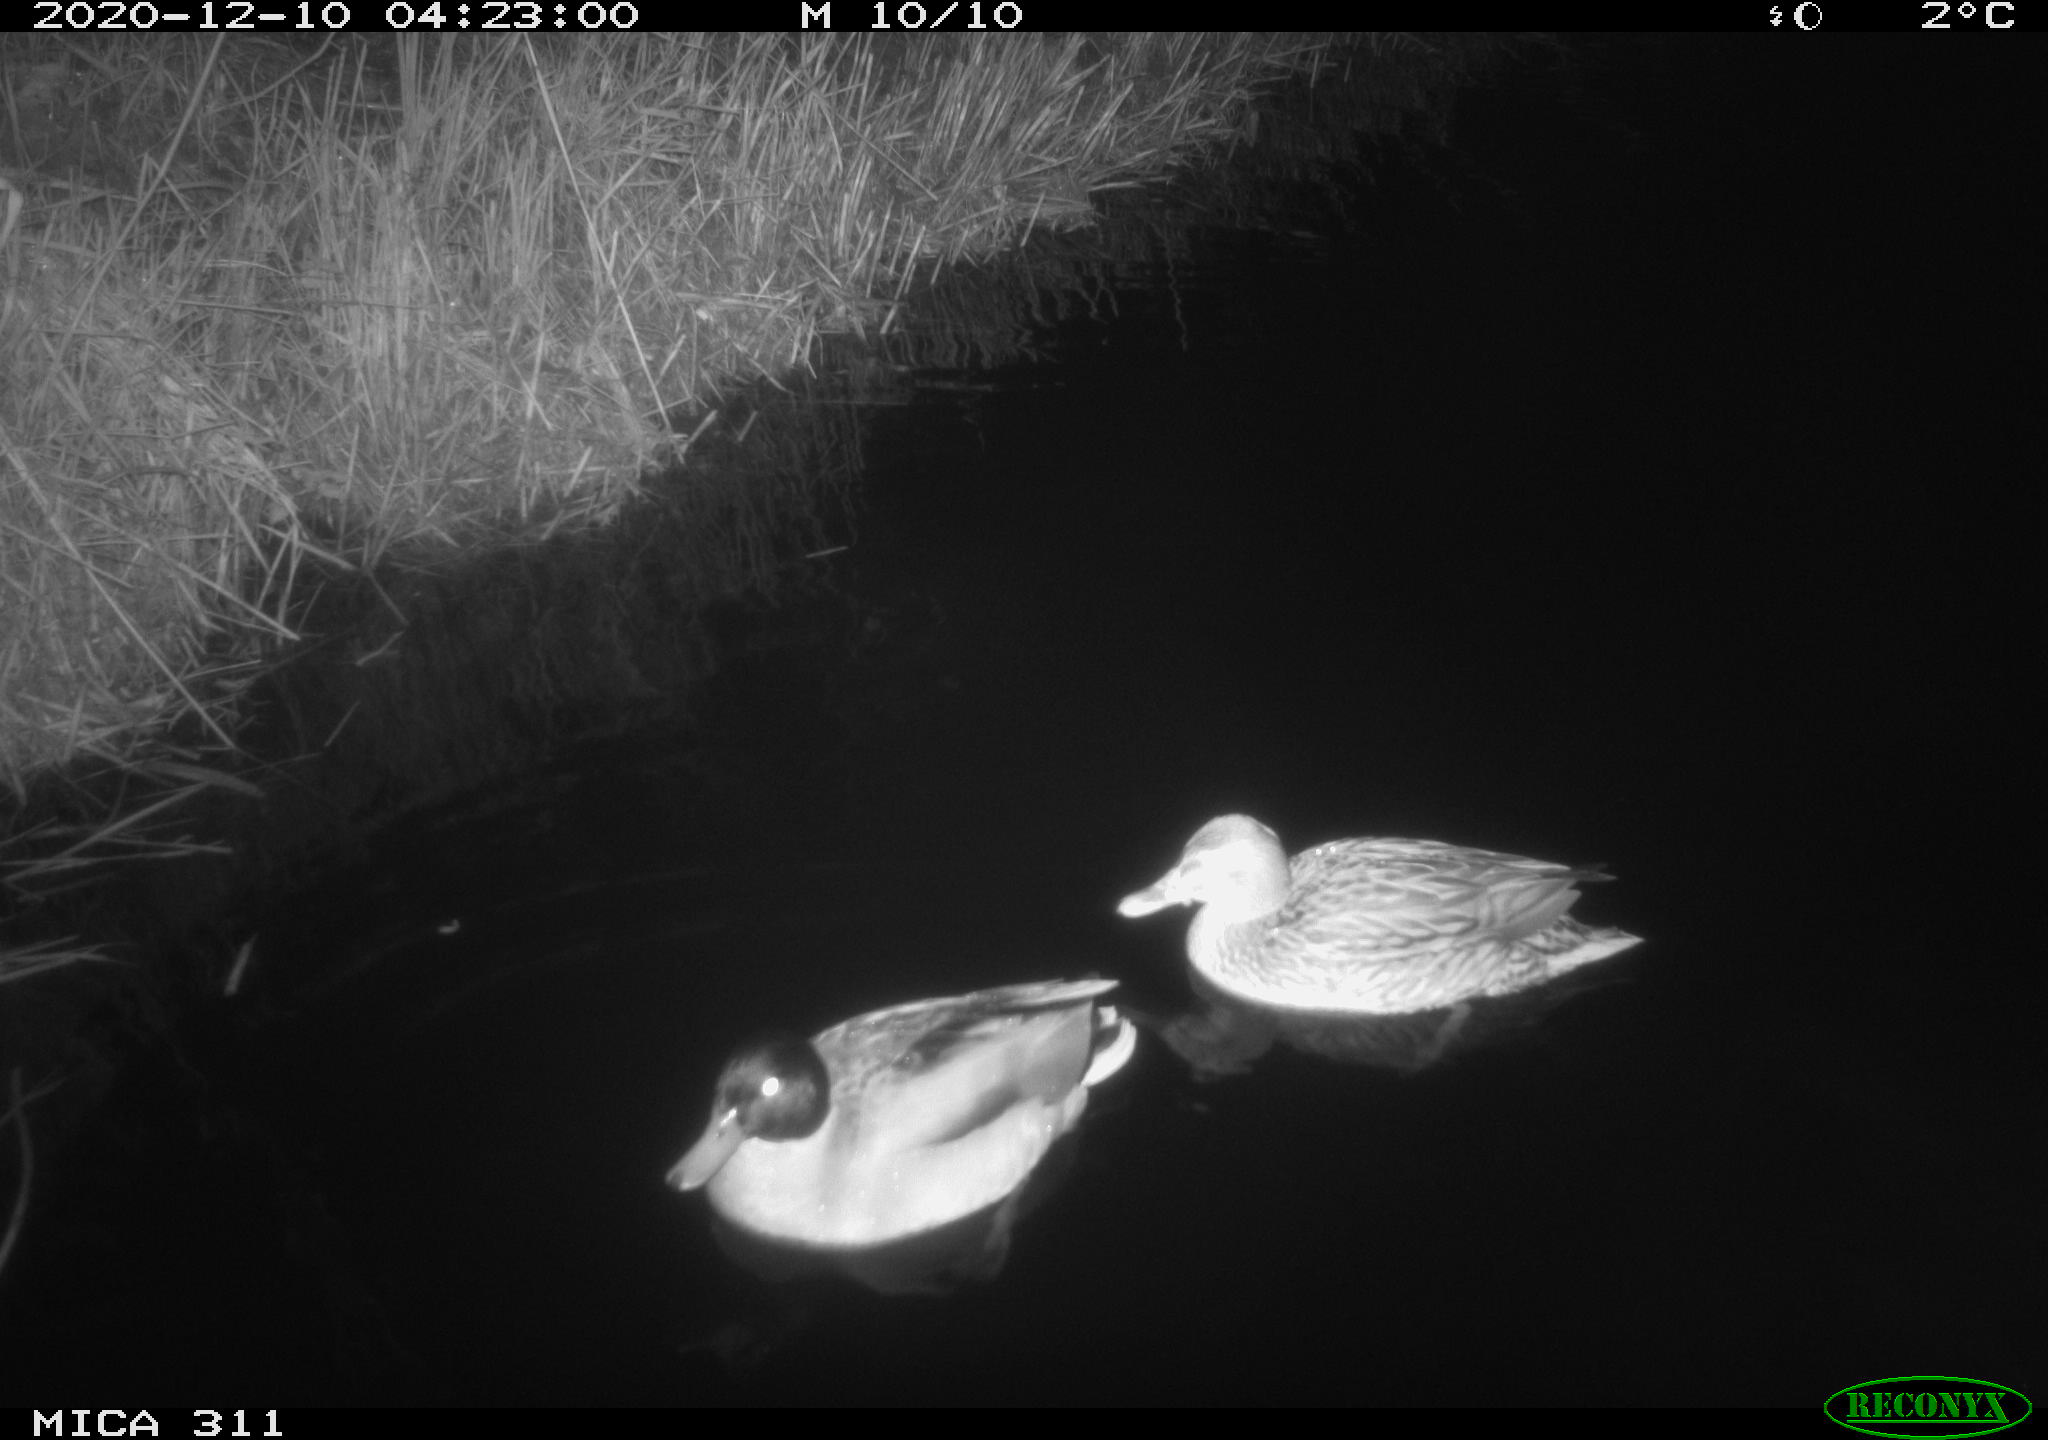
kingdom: Animalia
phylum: Chordata
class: Aves
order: Anseriformes
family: Anatidae
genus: Anas
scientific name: Anas platyrhynchos
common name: Mallard
